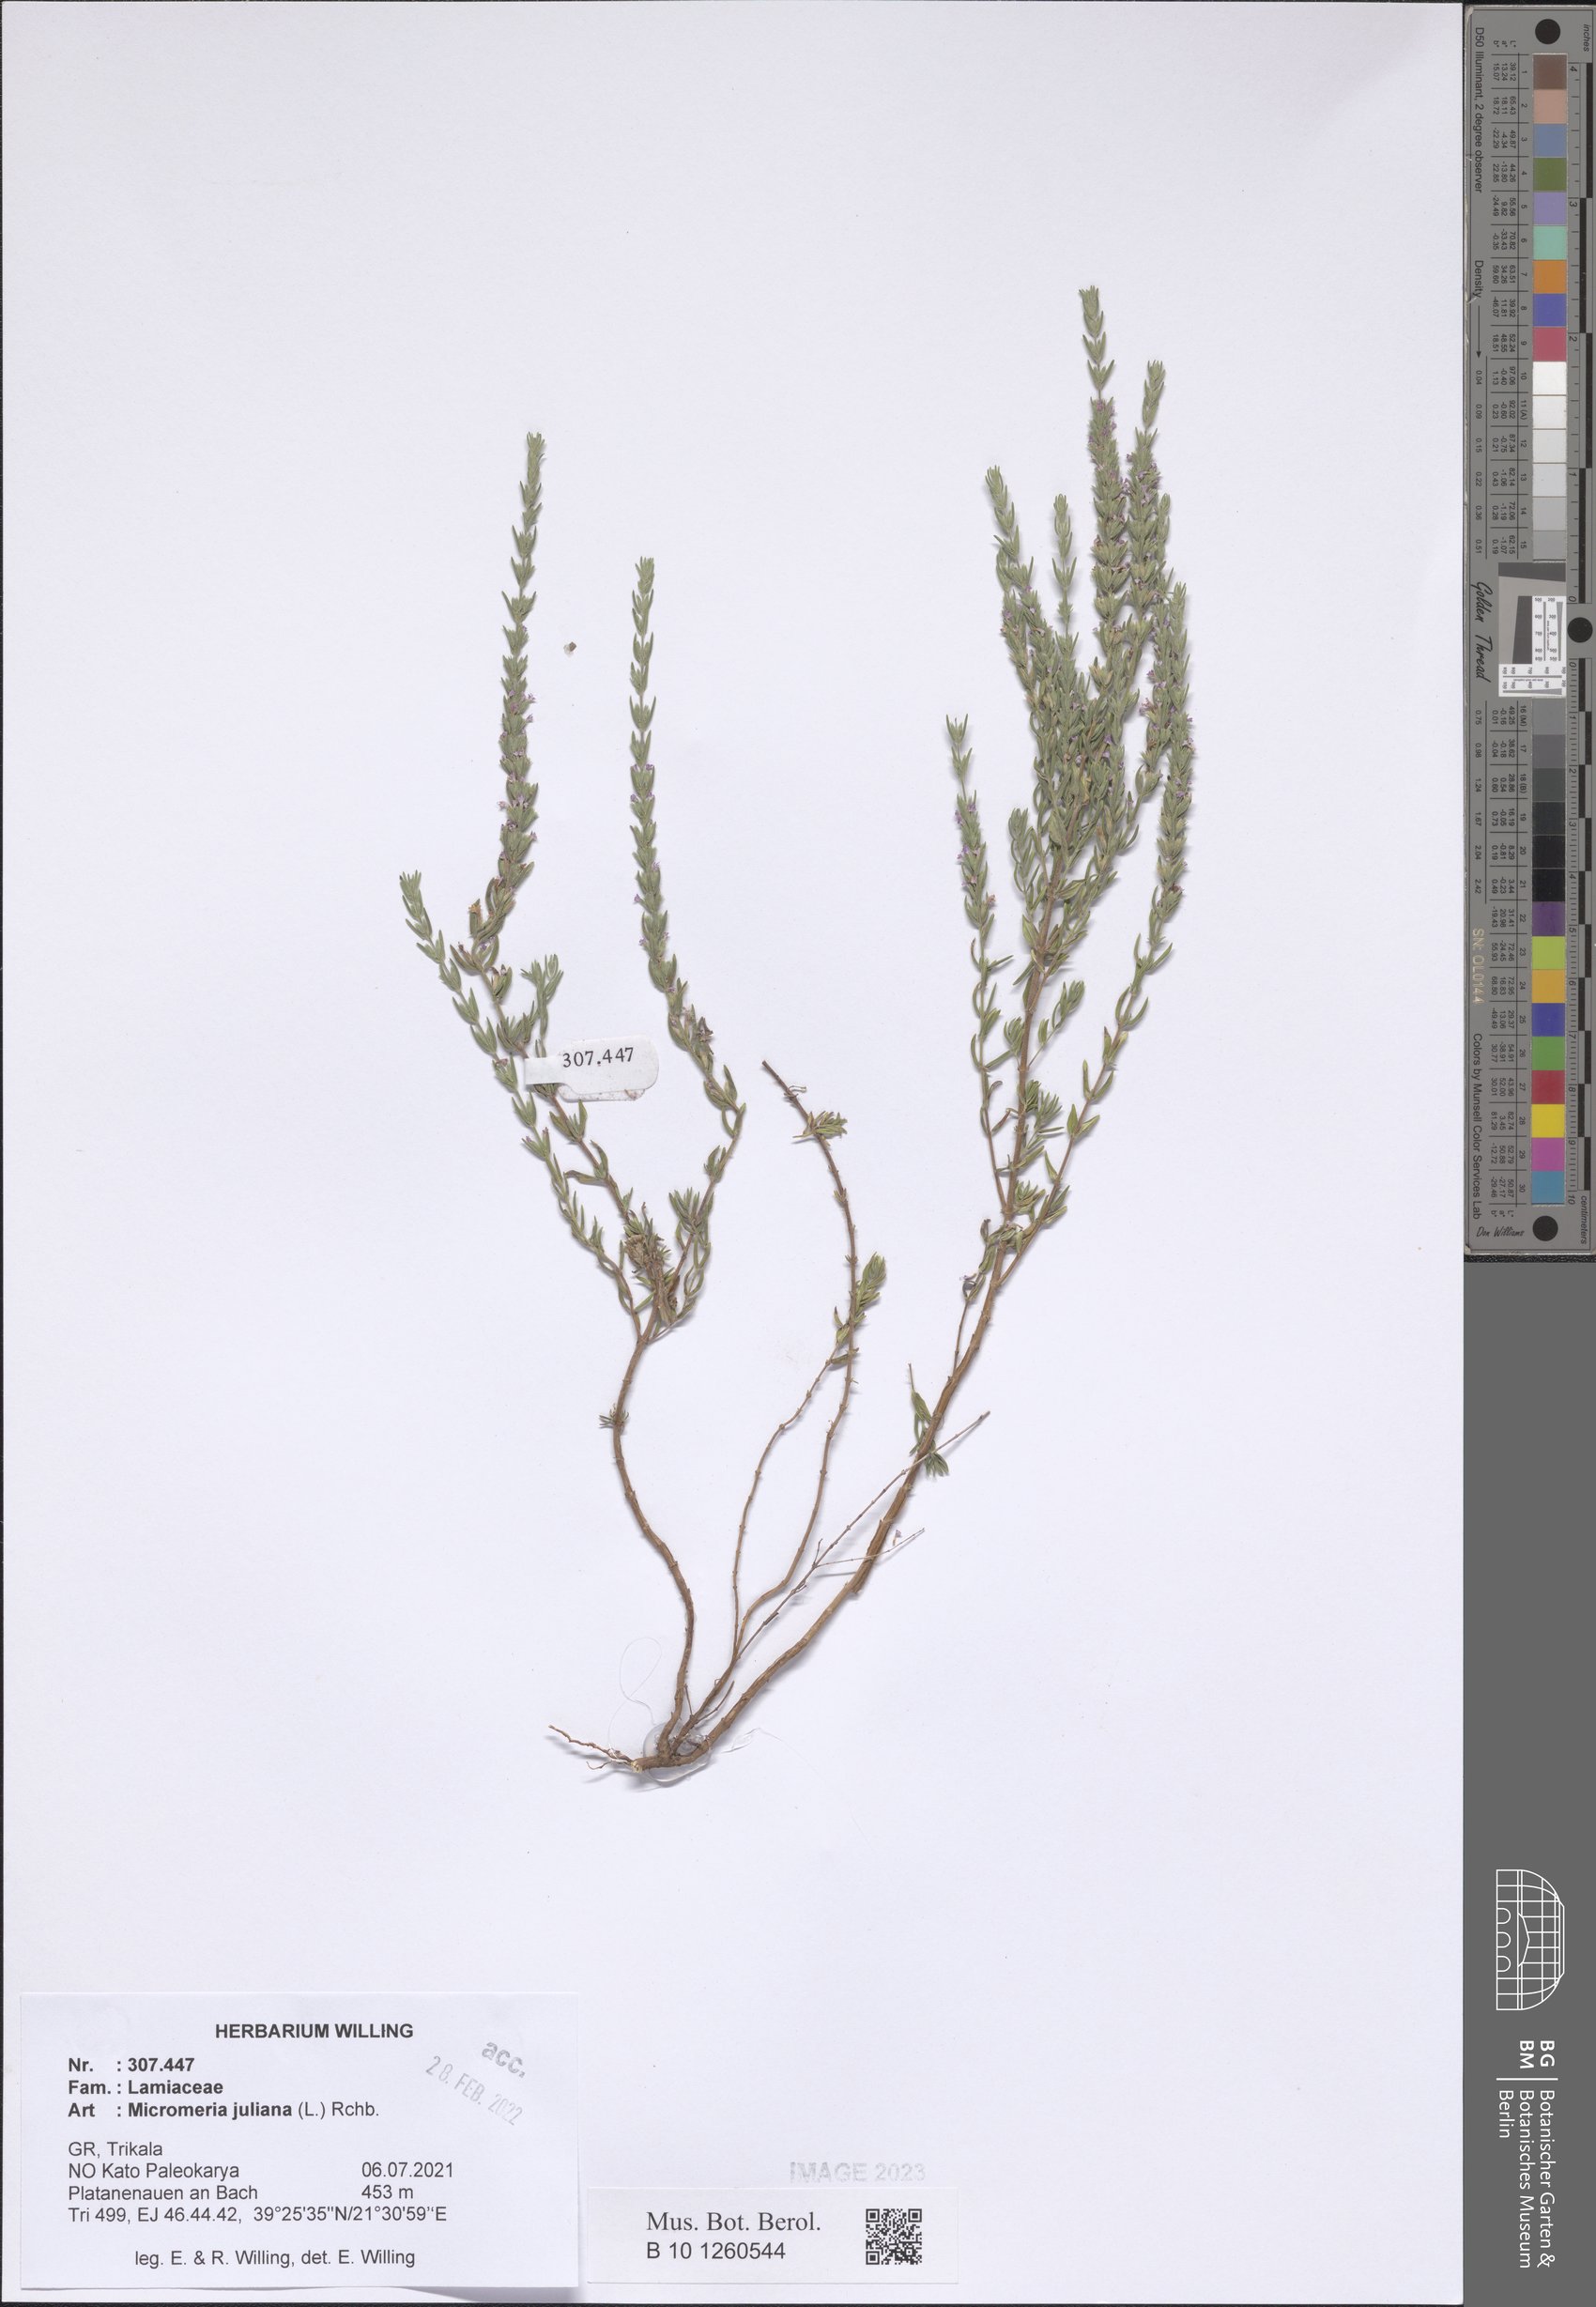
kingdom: Plantae
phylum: Tracheophyta
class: Magnoliopsida
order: Lamiales
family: Lamiaceae
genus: Micromeria
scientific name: Micromeria juliana
